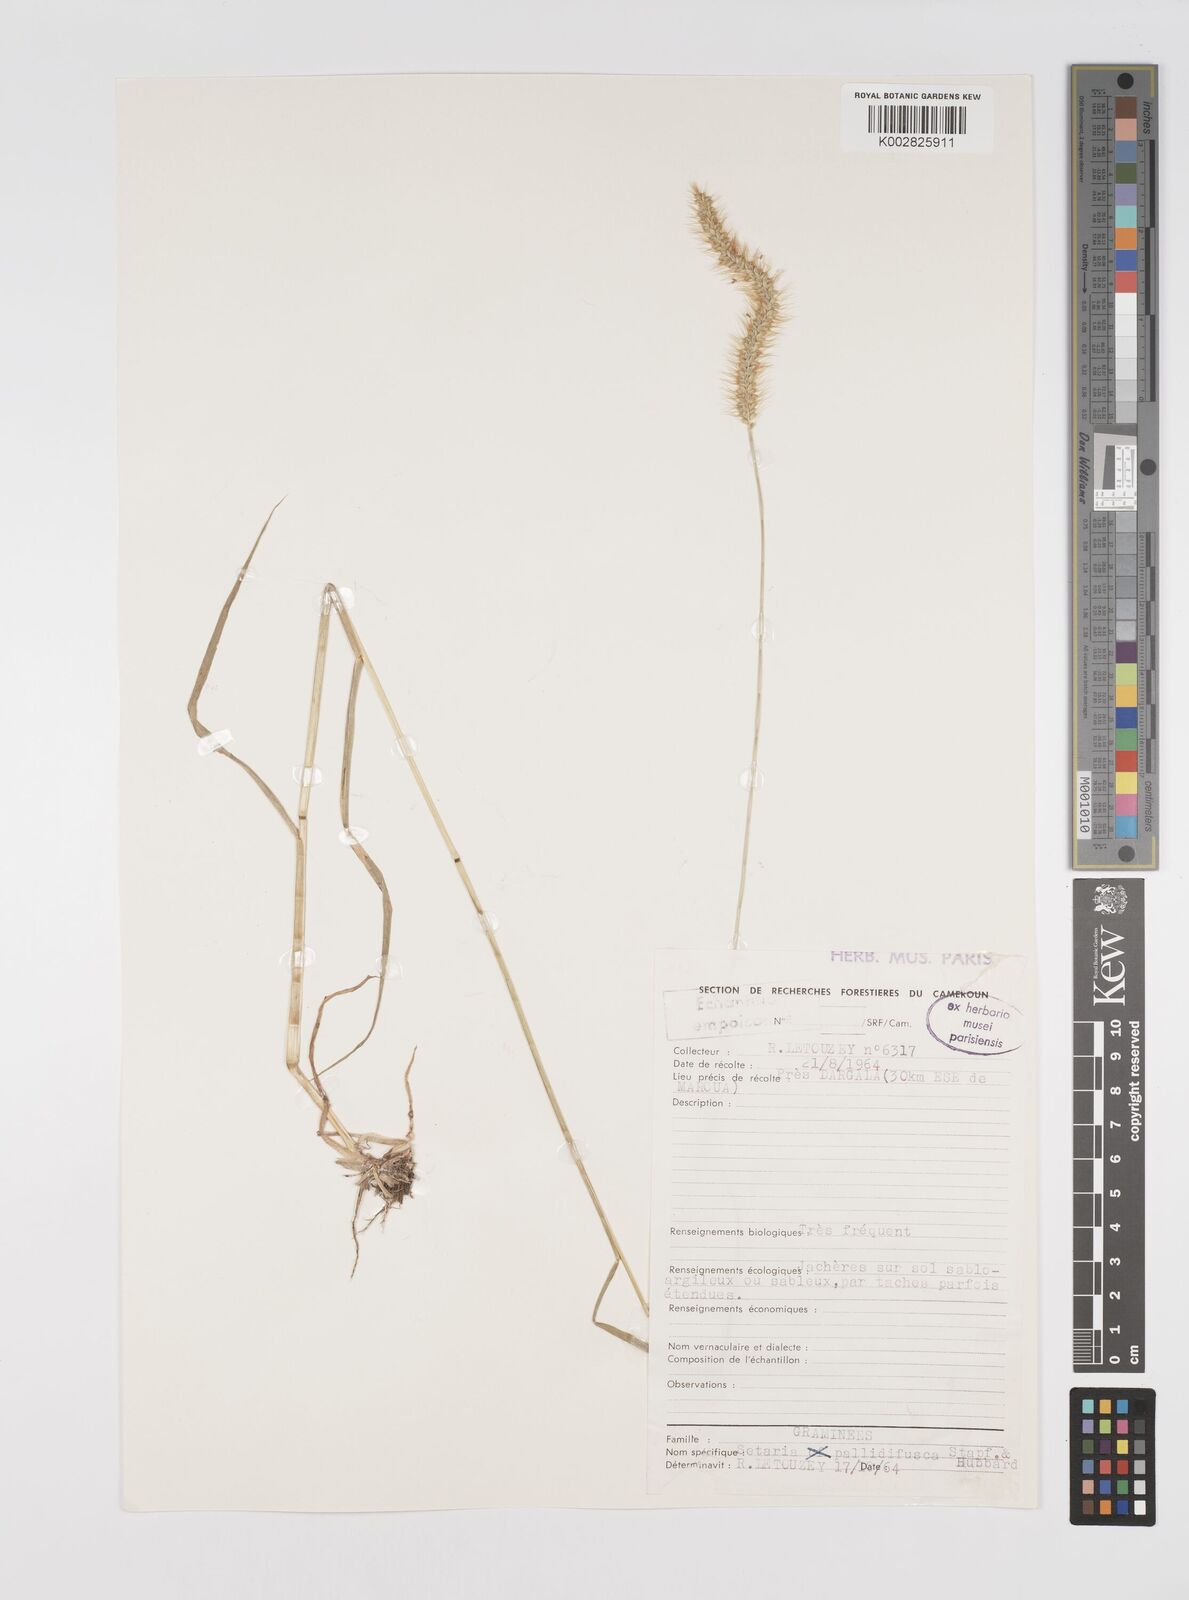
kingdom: Plantae
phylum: Tracheophyta
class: Liliopsida
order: Poales
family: Poaceae
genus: Setaria
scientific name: Setaria pumila
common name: Yellow bristle-grass
